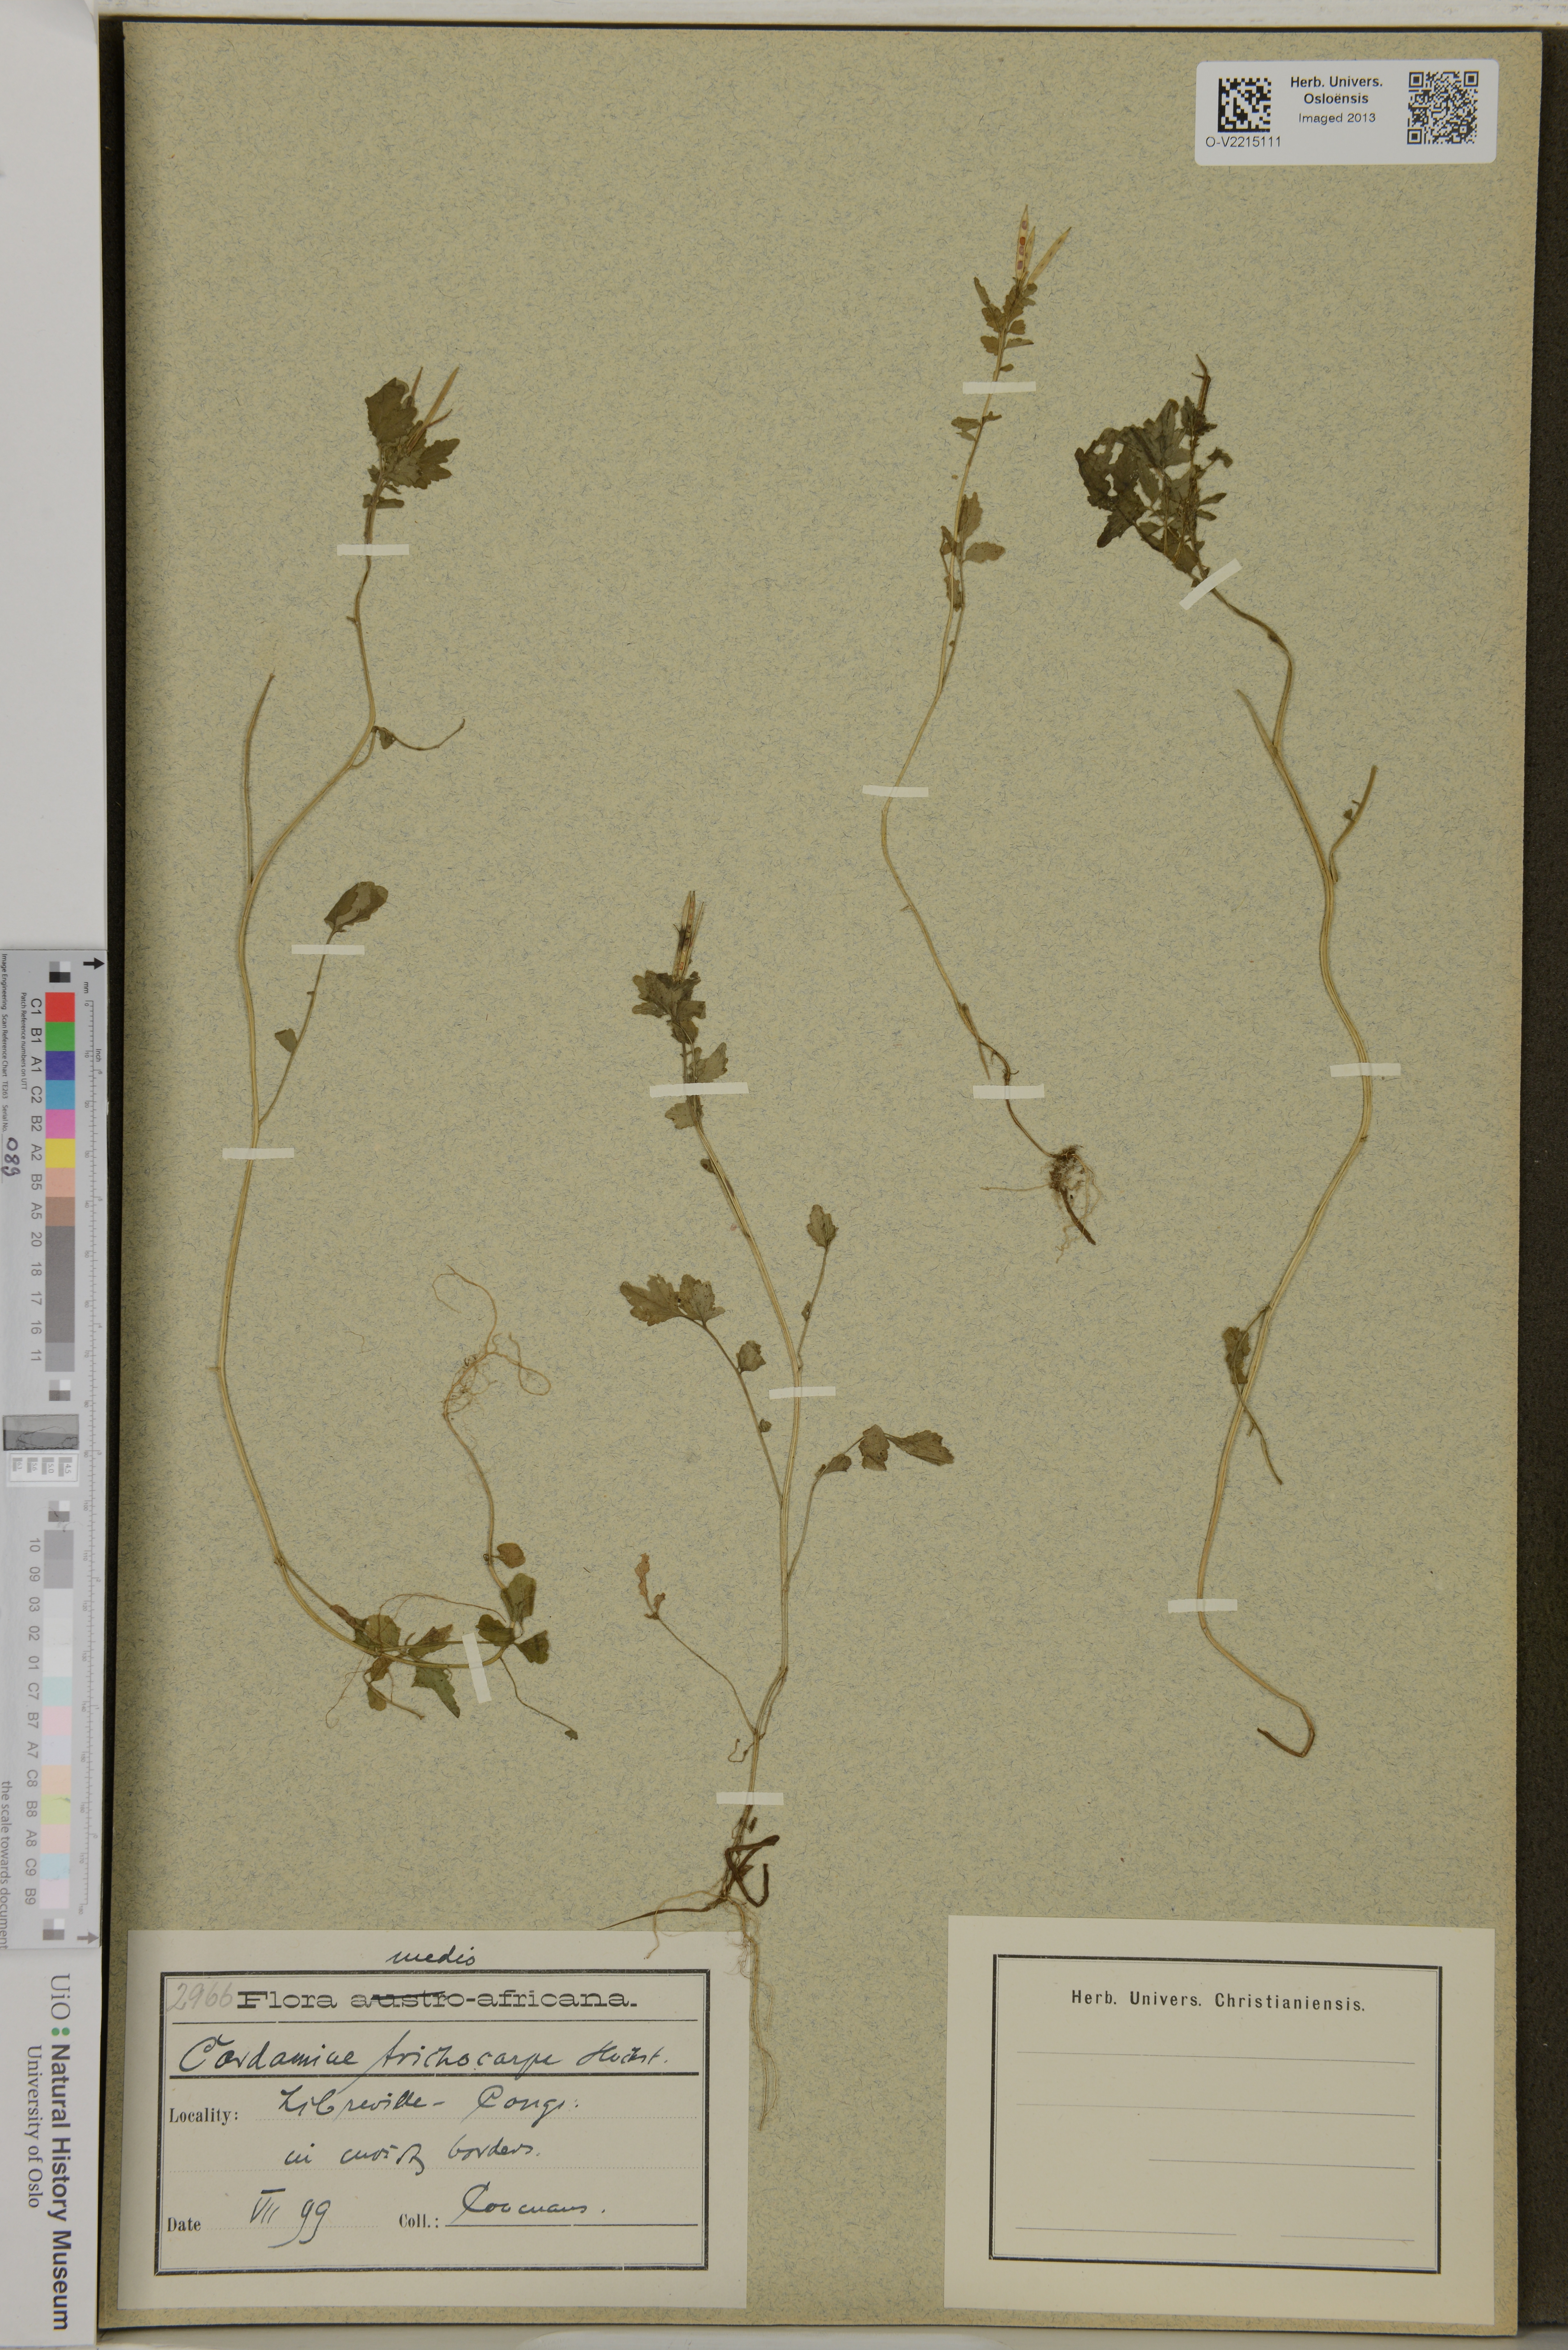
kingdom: Plantae
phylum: Tracheophyta
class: Magnoliopsida
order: Brassicales
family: Brassicaceae
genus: Cardamine
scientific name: Cardamine trichocarpa
